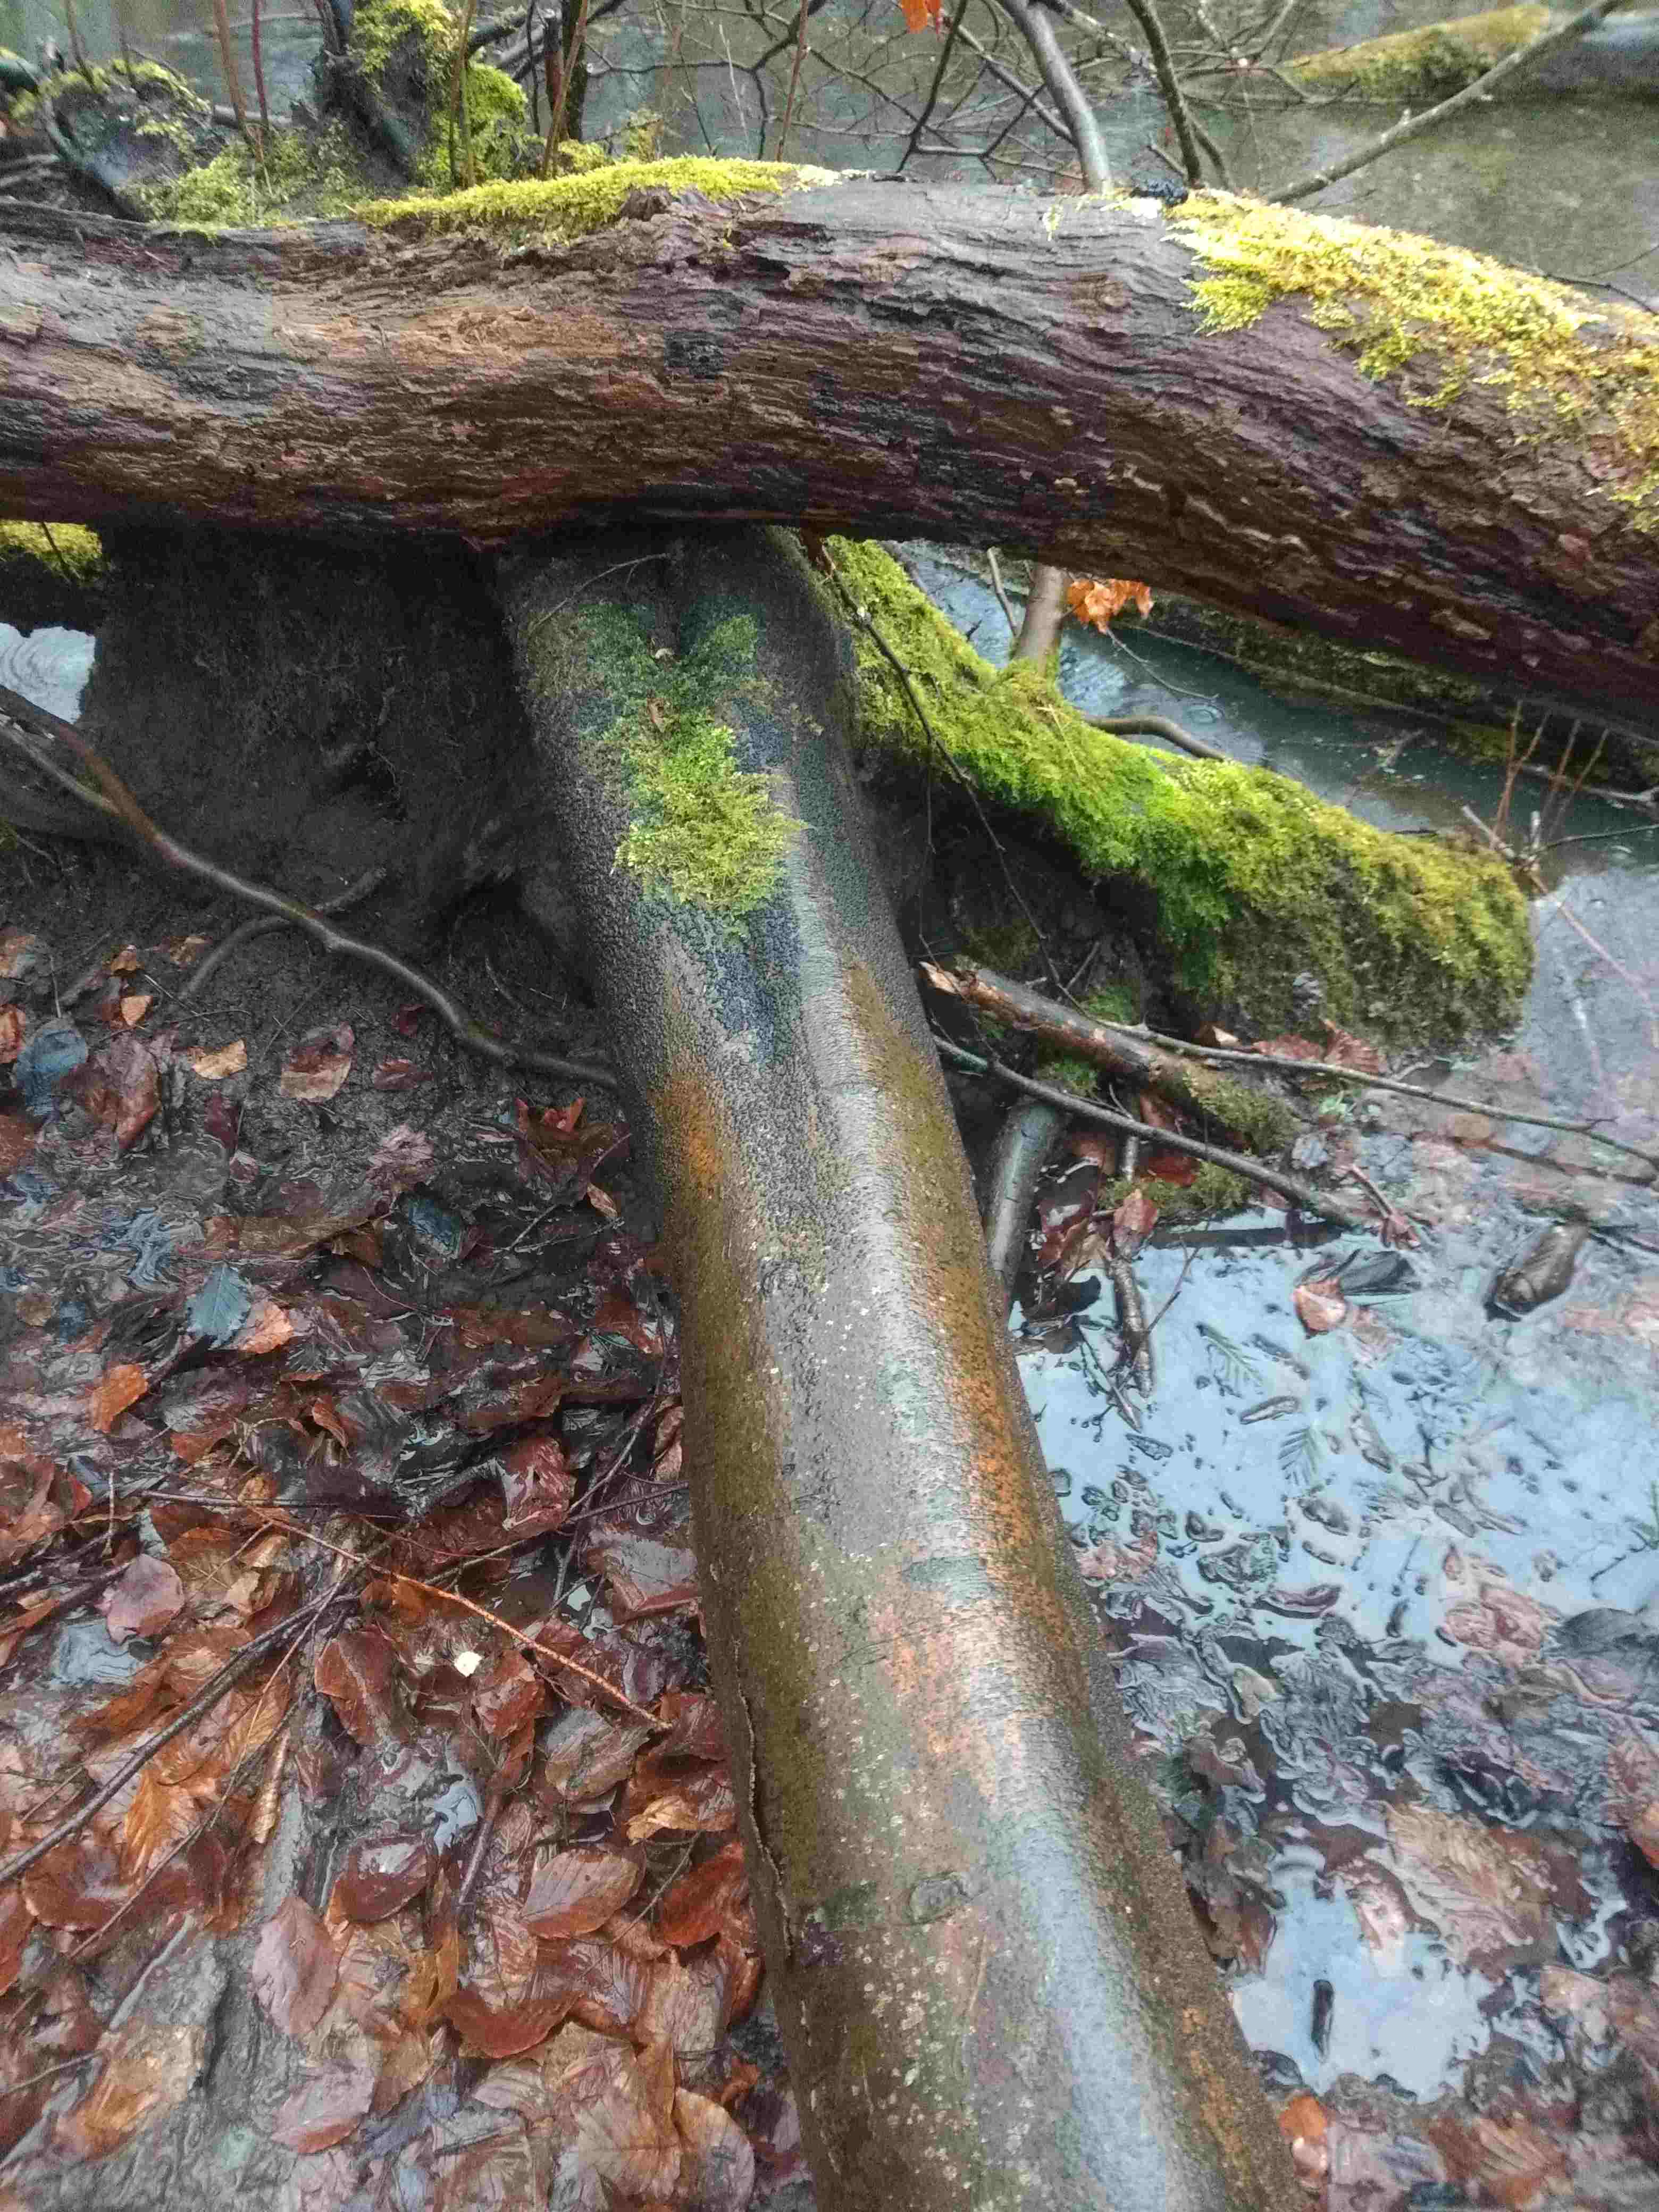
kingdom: Fungi
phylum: Ascomycota
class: Sordariomycetes
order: Xylariales
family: Diatrypaceae
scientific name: Diatrypaceae
